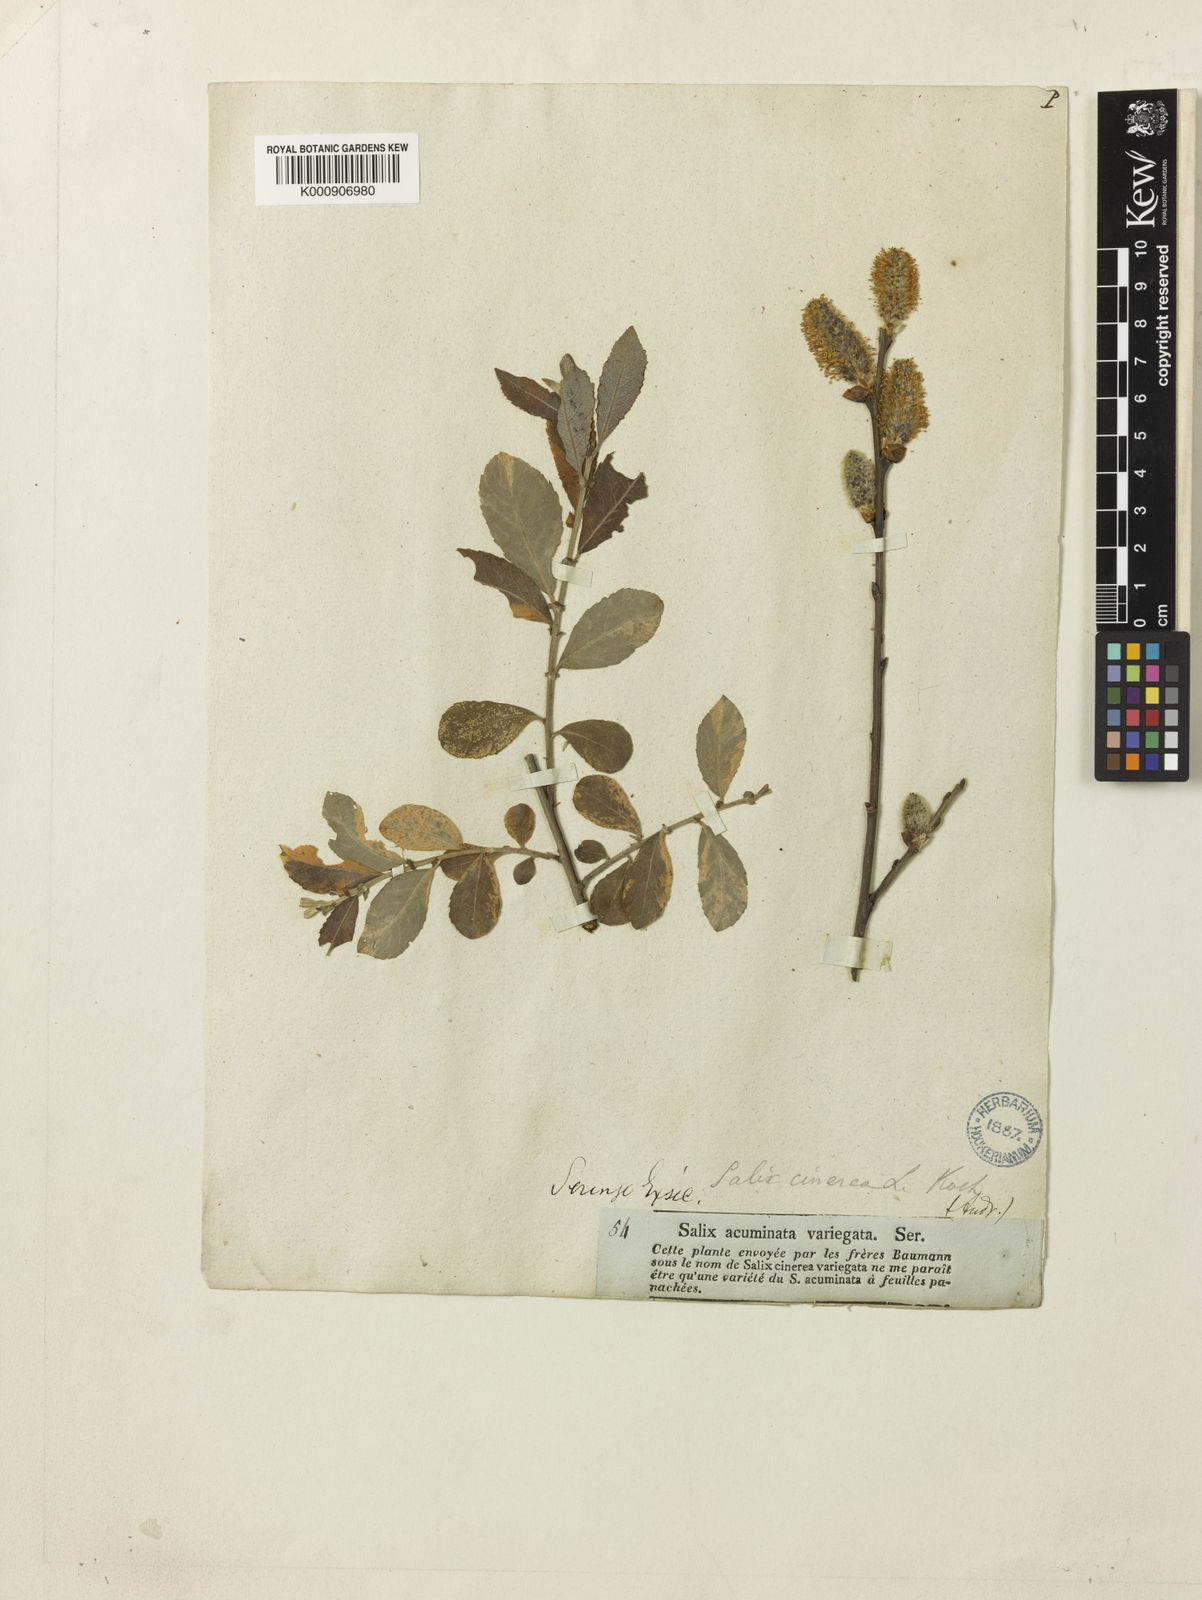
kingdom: Plantae
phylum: Tracheophyta
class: Magnoliopsida
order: Malpighiales
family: Salicaceae
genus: Salix
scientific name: Salix cinerea
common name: Common sallow
